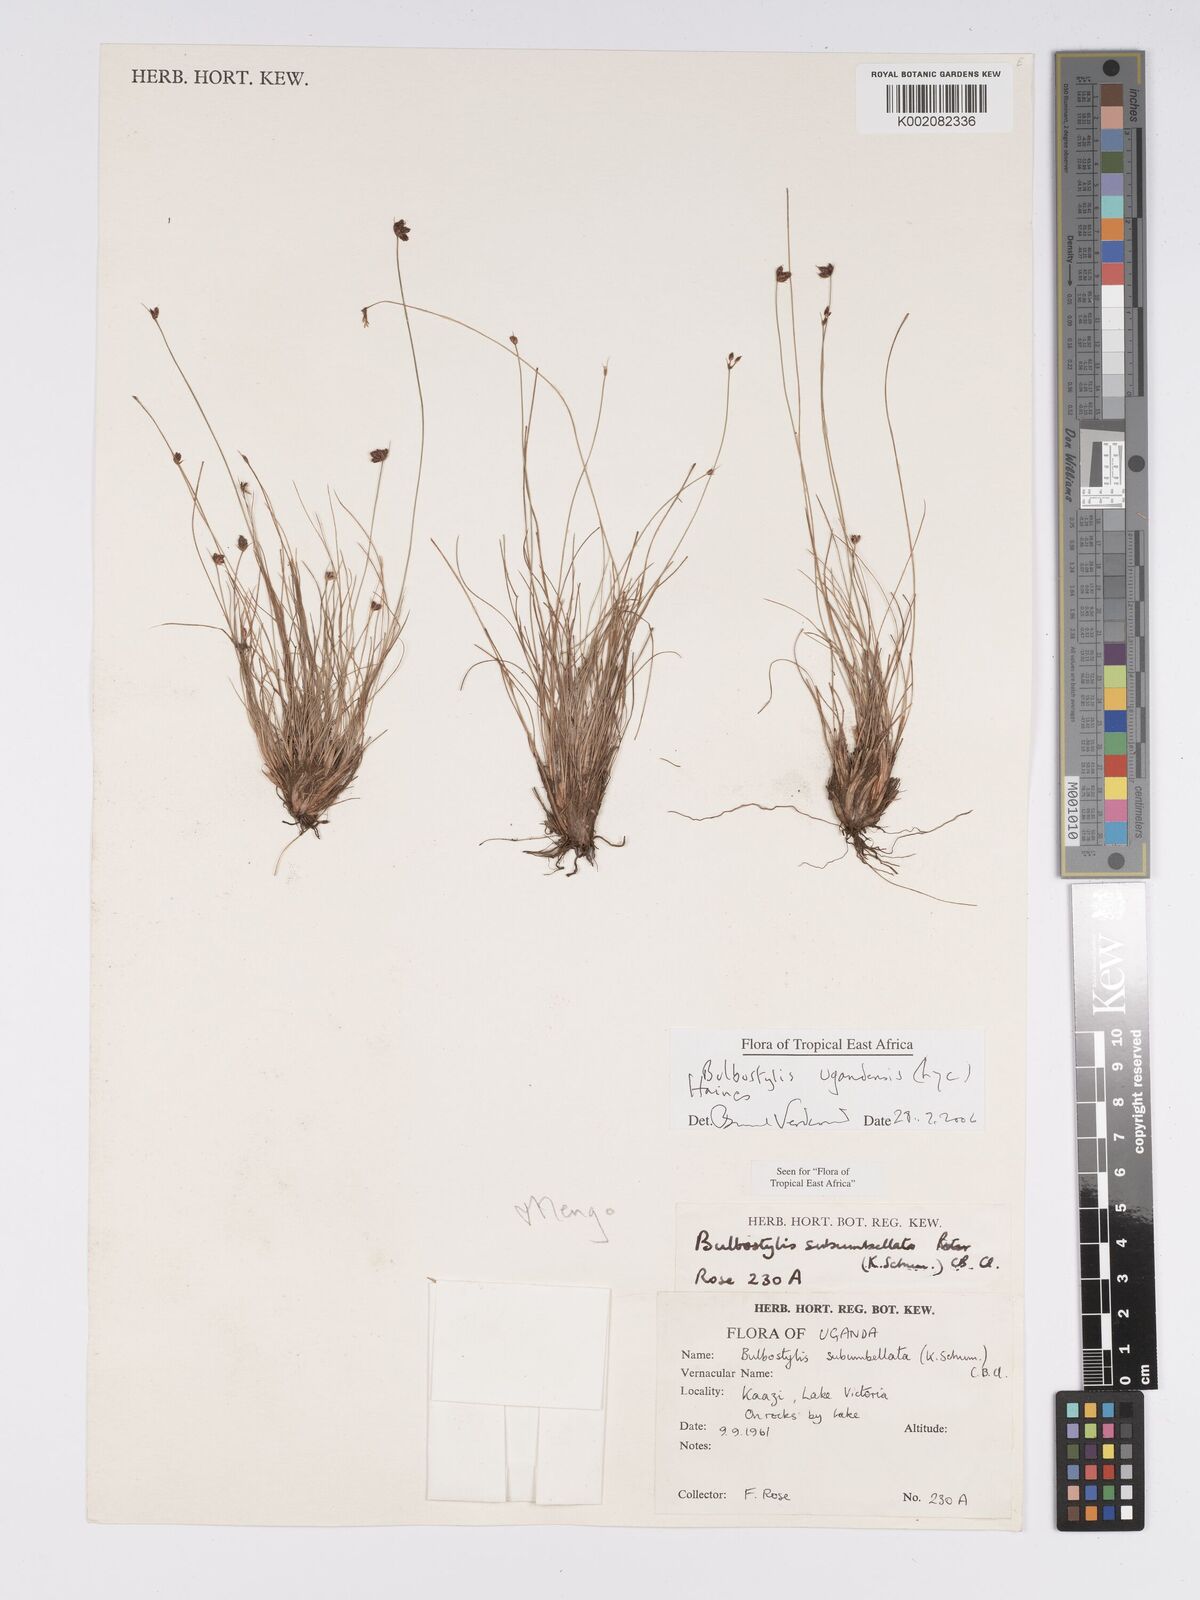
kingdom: Plantae
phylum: Tracheophyta
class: Liliopsida
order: Poales
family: Cyperaceae
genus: Bulbostylis
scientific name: Bulbostylis ugandensis
